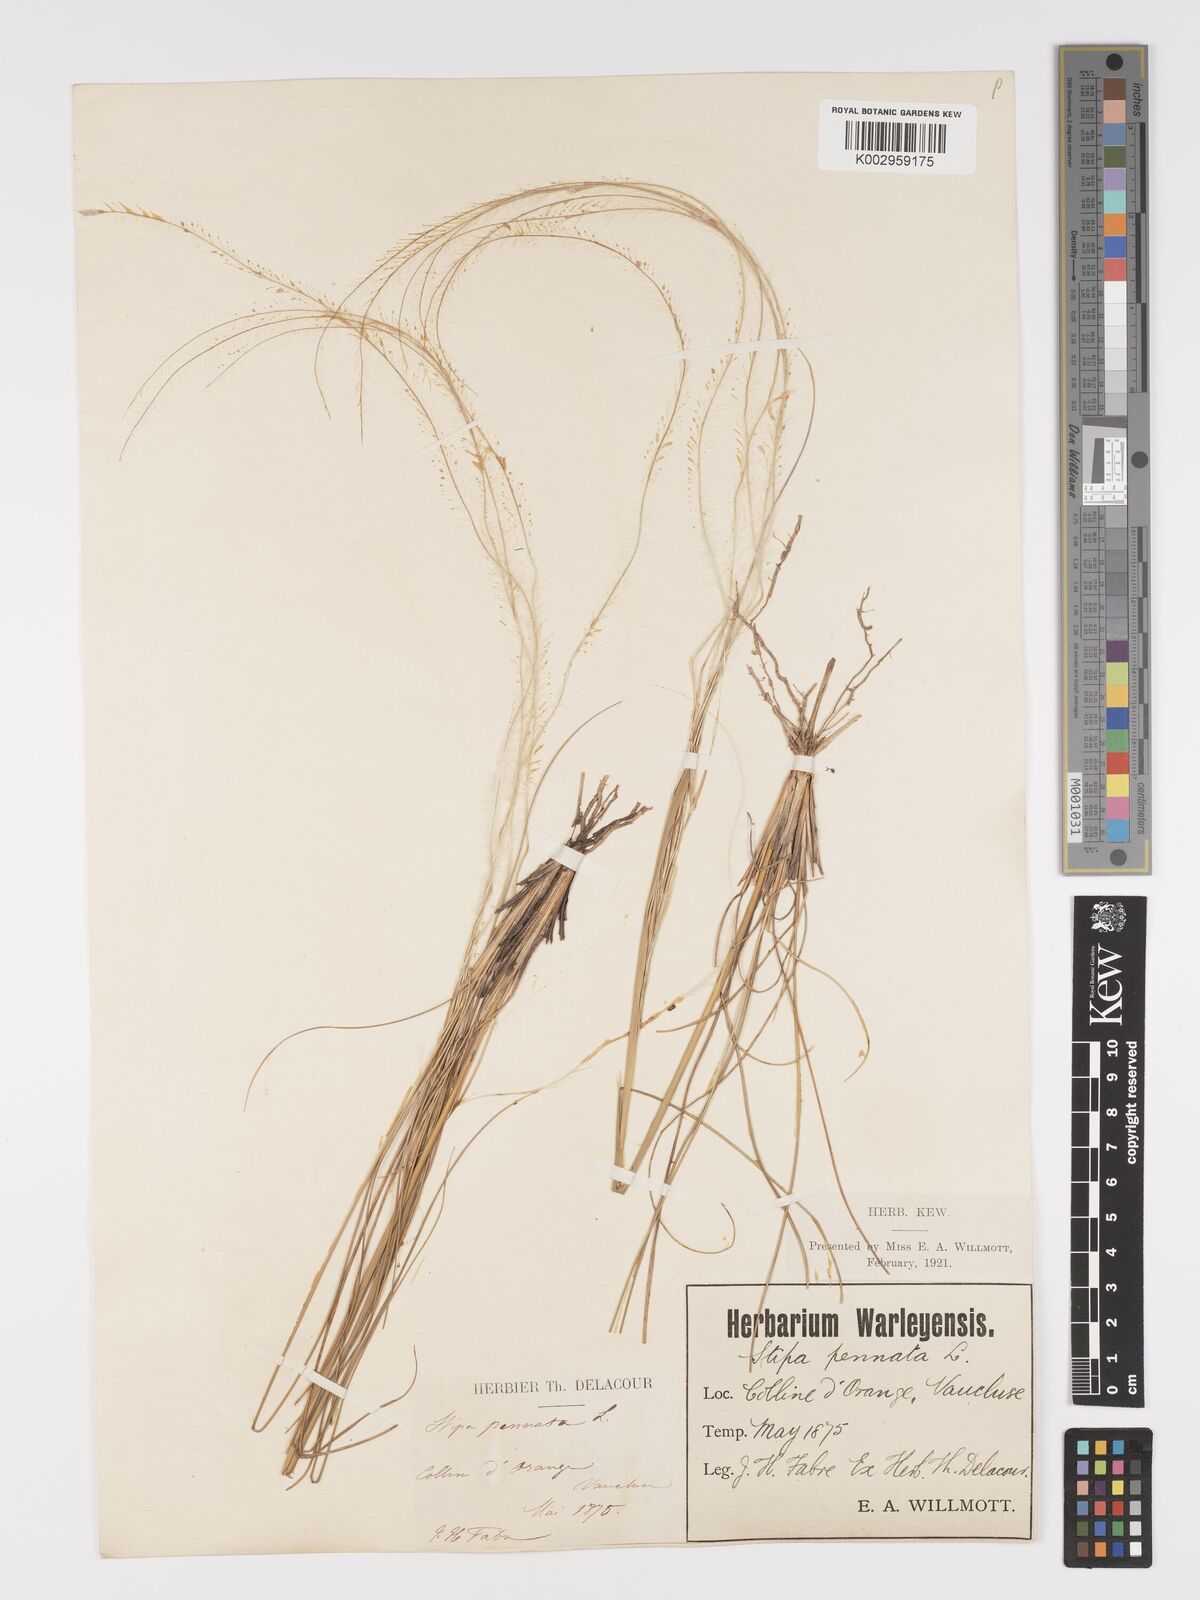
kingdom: Plantae
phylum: Tracheophyta
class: Liliopsida
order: Poales
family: Poaceae
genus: Stipa
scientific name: Stipa pennata
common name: European feather grass
